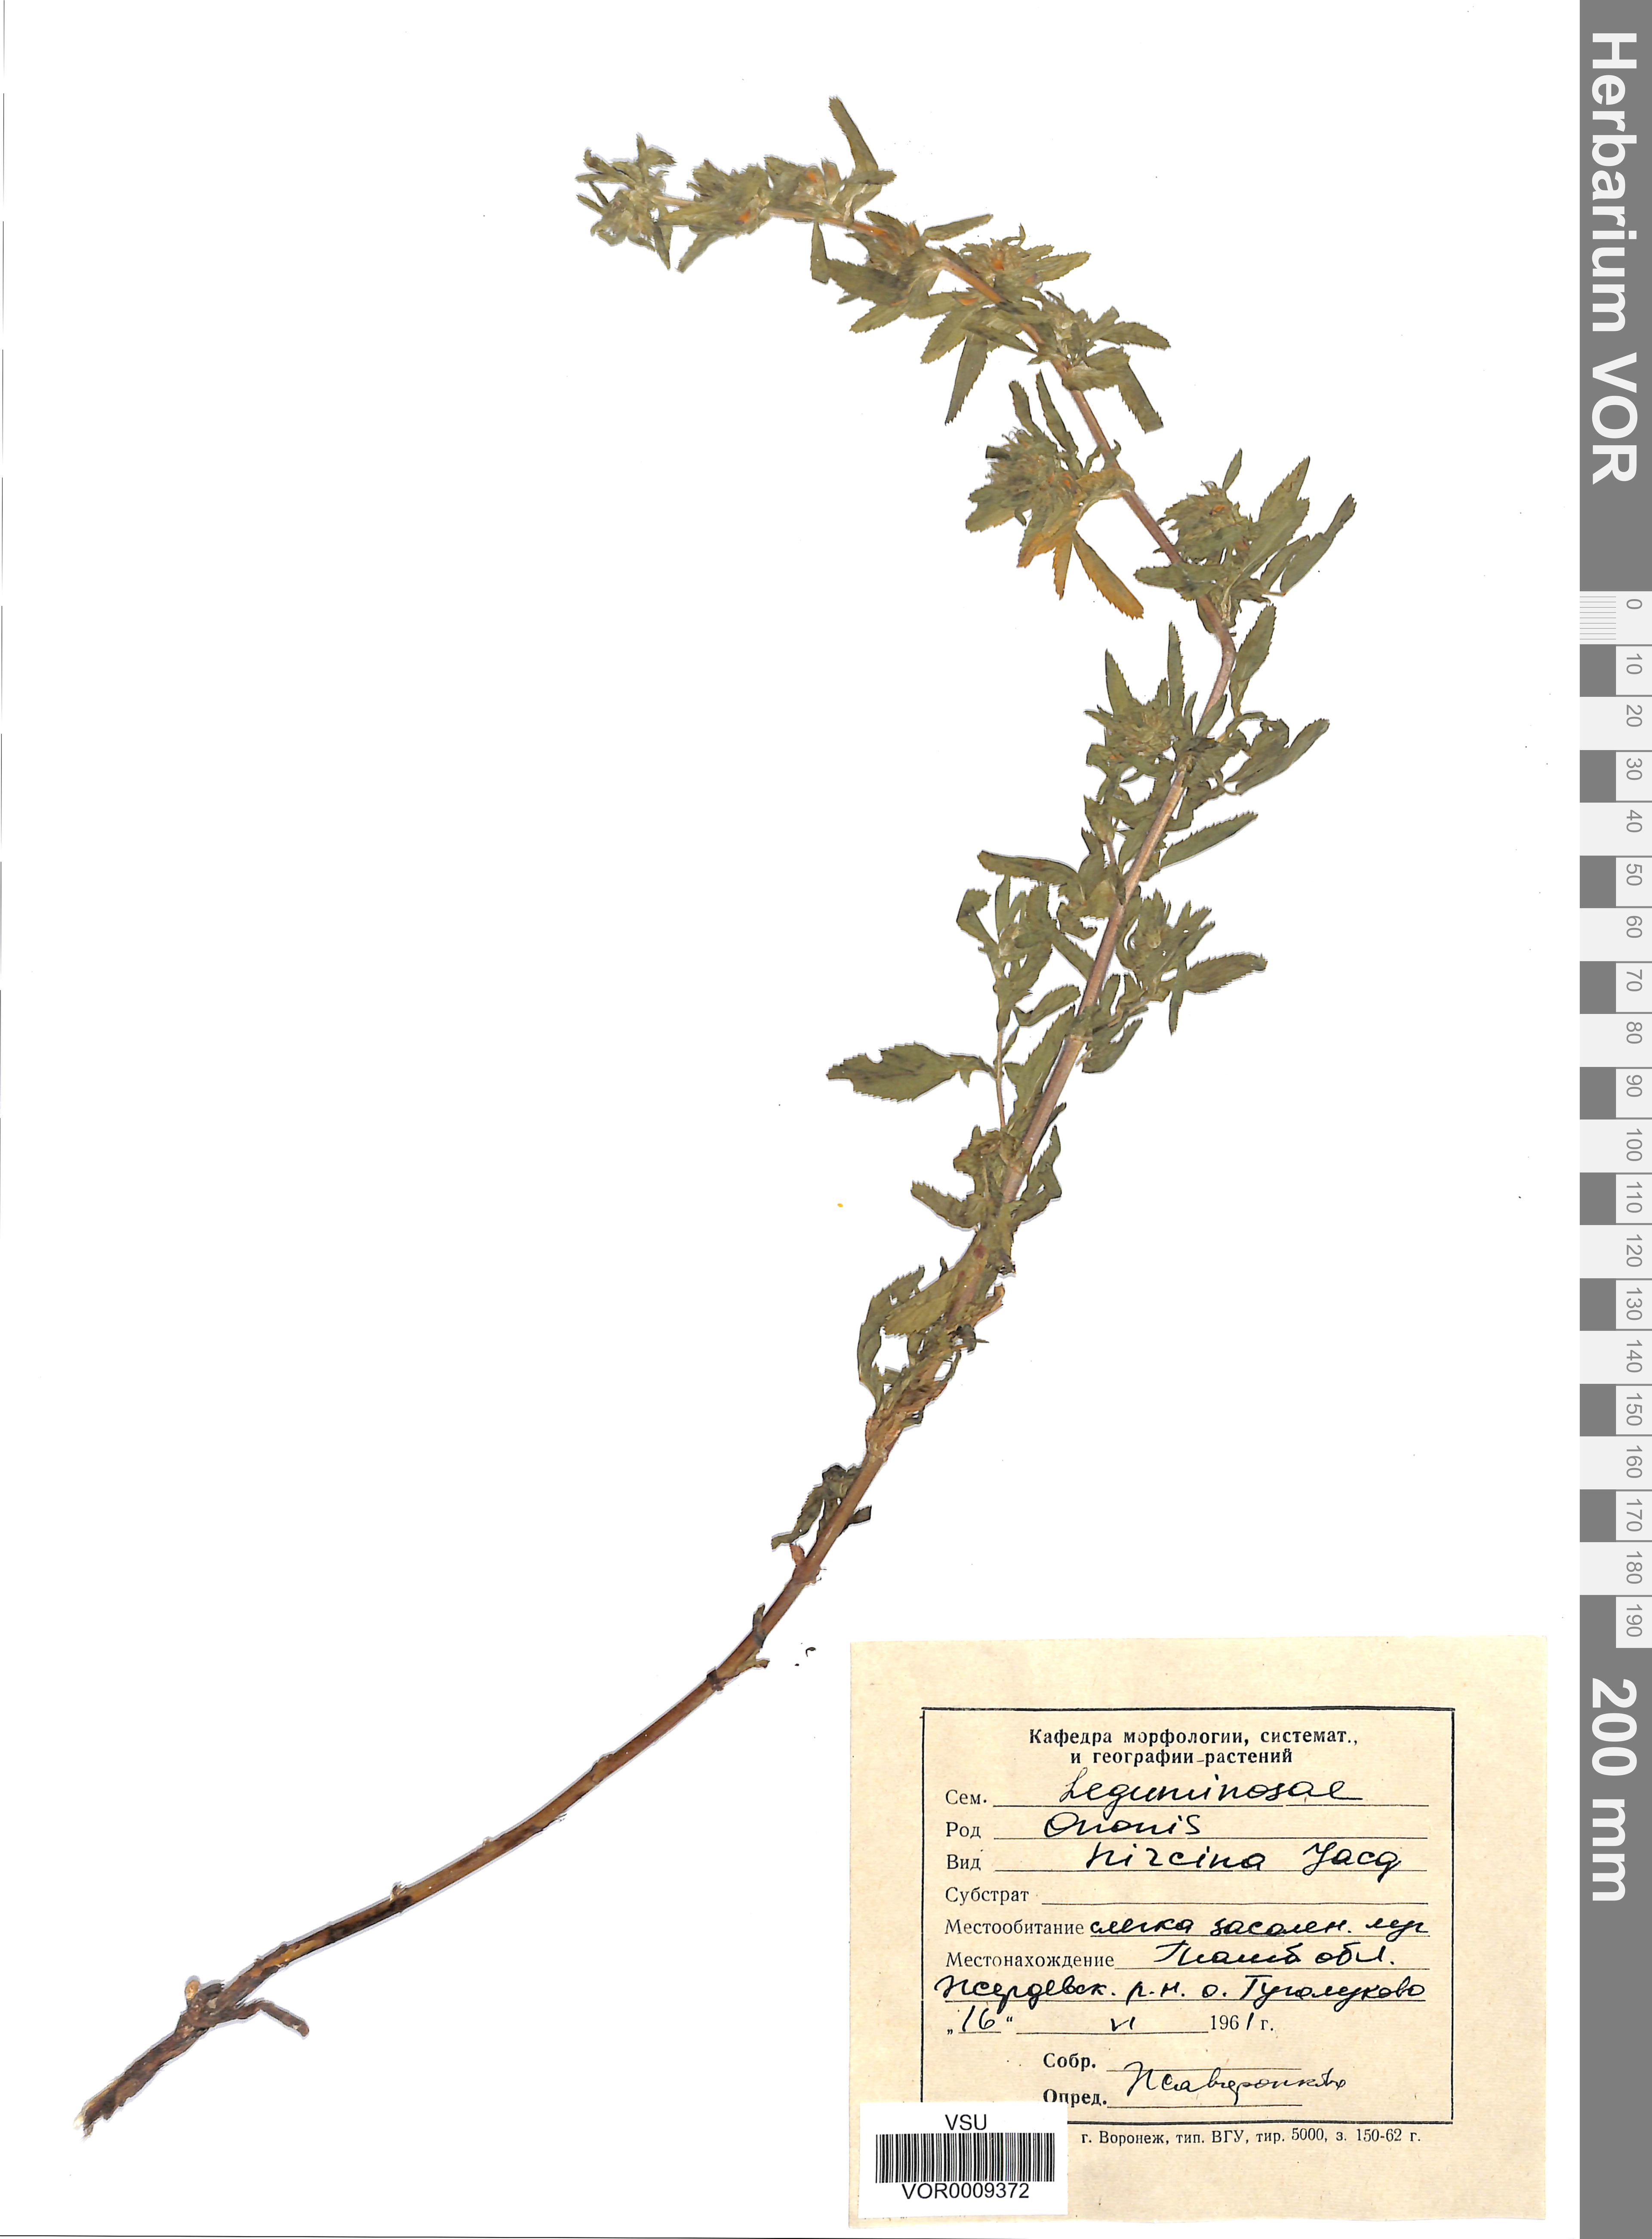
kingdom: Plantae
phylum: Tracheophyta
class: Magnoliopsida
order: Fabales
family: Fabaceae
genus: Ononis
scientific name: Ononis arvensis
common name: Field restharrow
